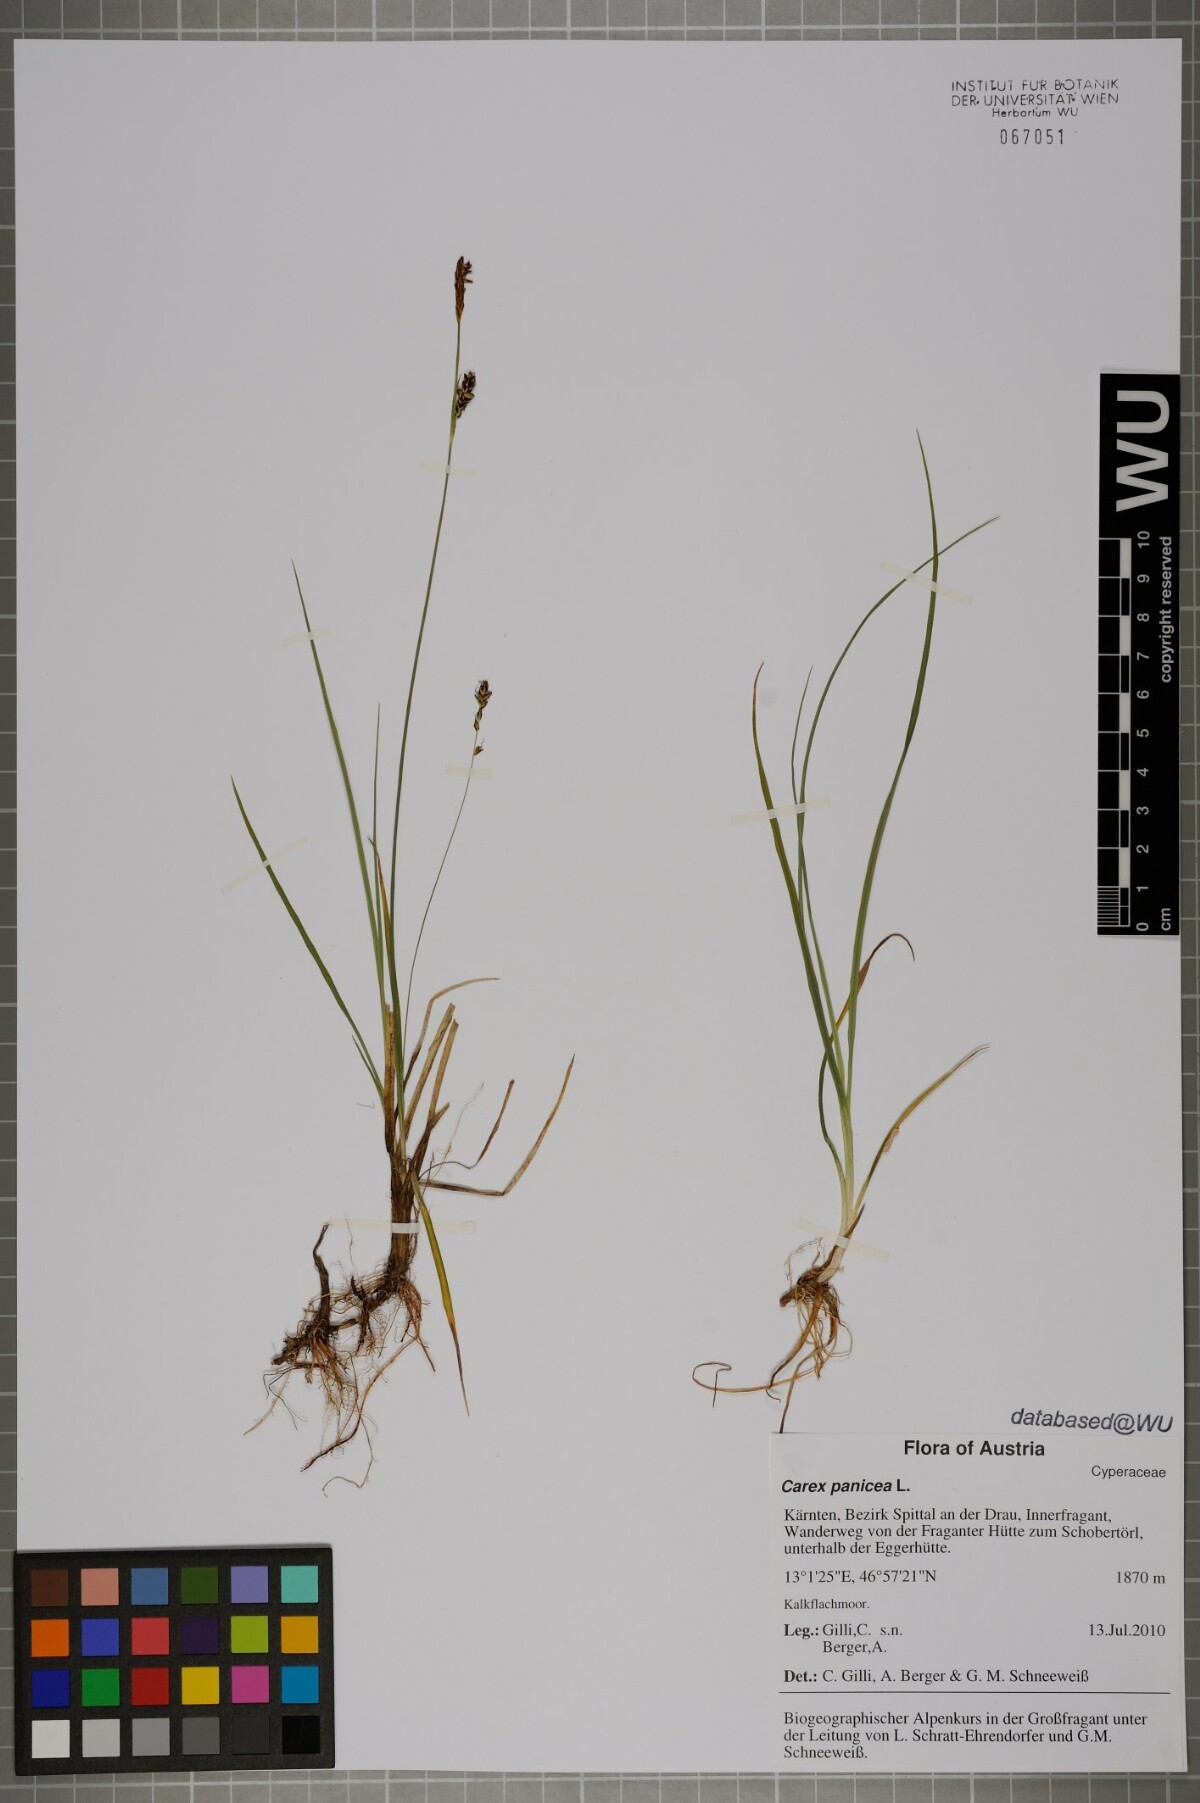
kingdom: Plantae
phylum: Tracheophyta
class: Liliopsida
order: Poales
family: Cyperaceae
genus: Carex
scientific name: Carex panicea
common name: Carnation sedge
